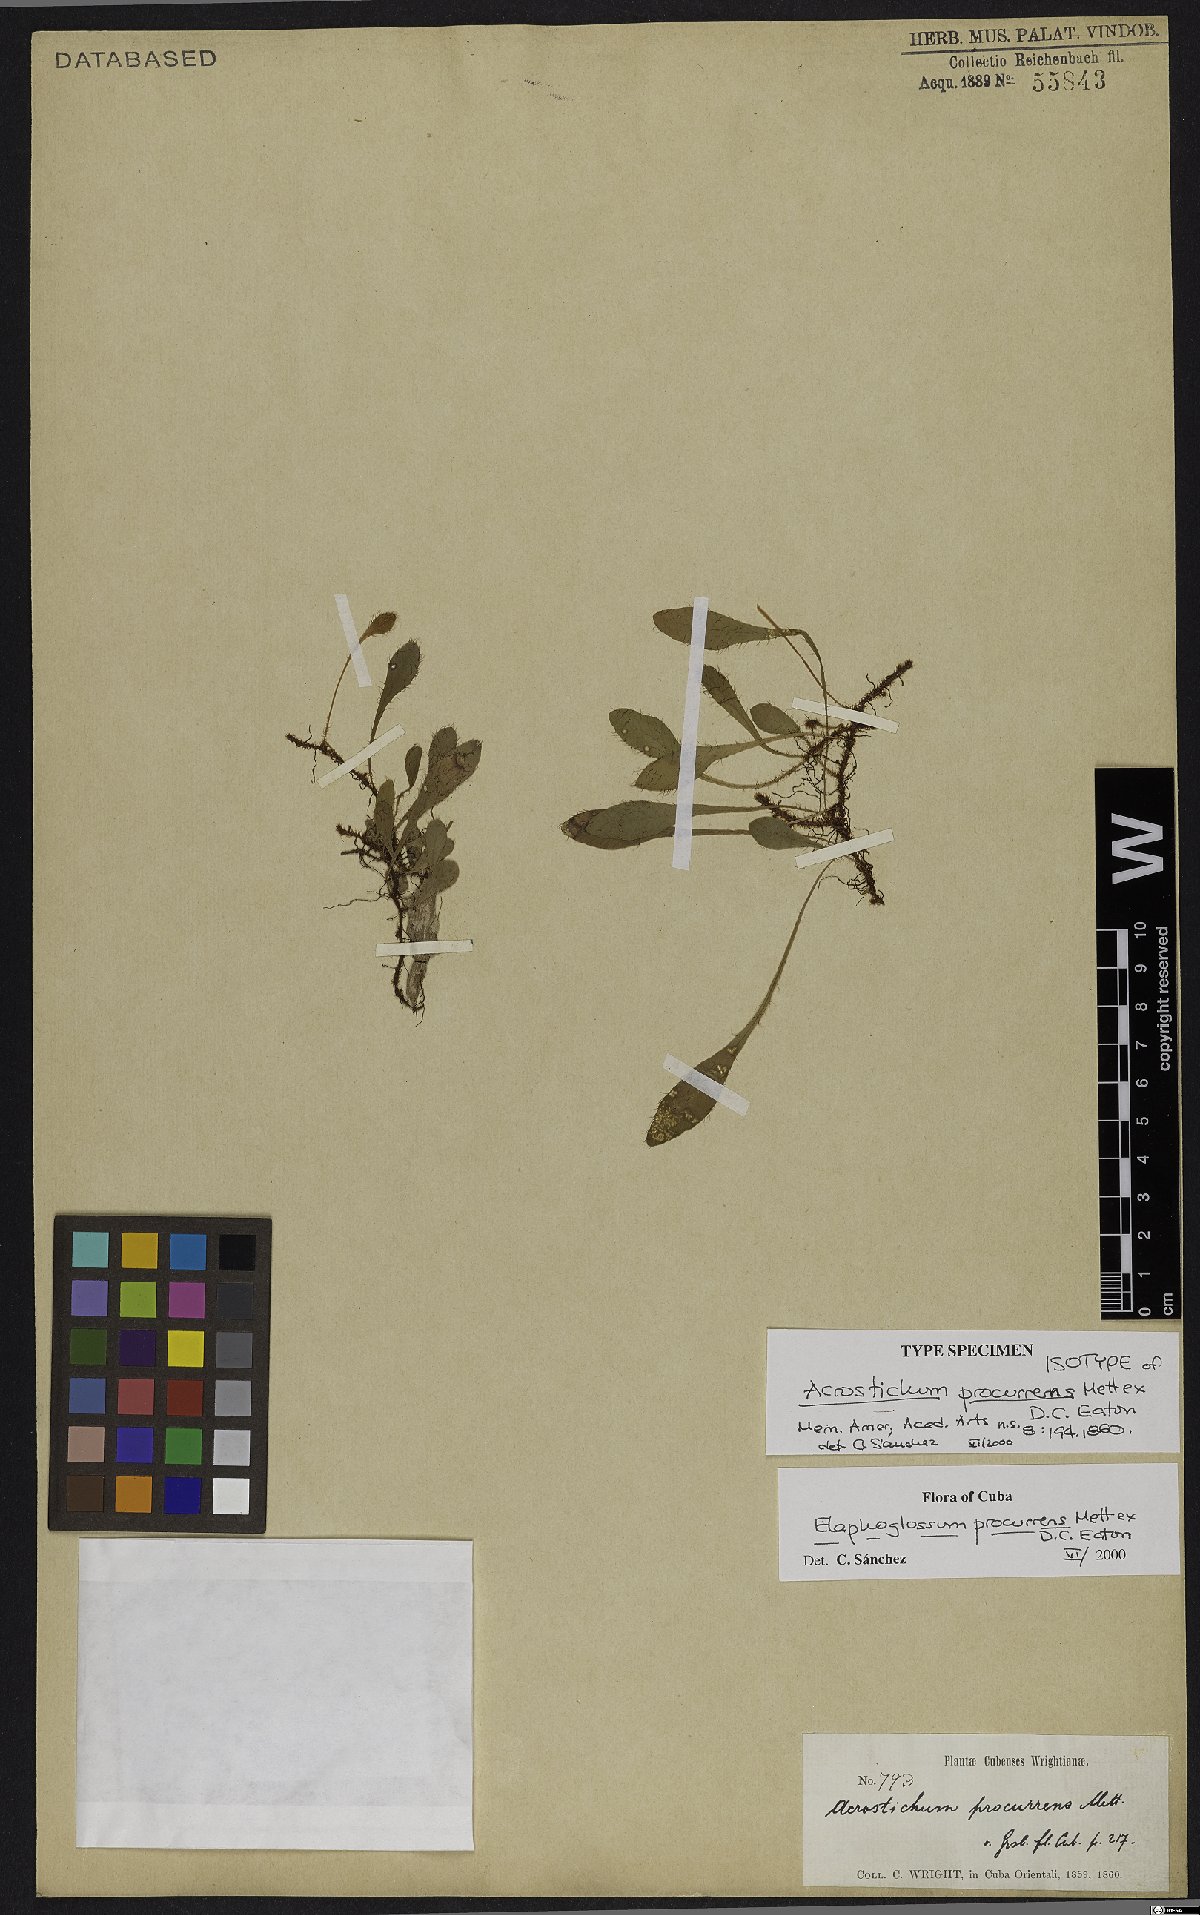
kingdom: Plantae
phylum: Tracheophyta
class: Polypodiopsida
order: Polypodiales
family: Dryopteridaceae
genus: Elaphoglossum
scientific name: Elaphoglossum procurrens
